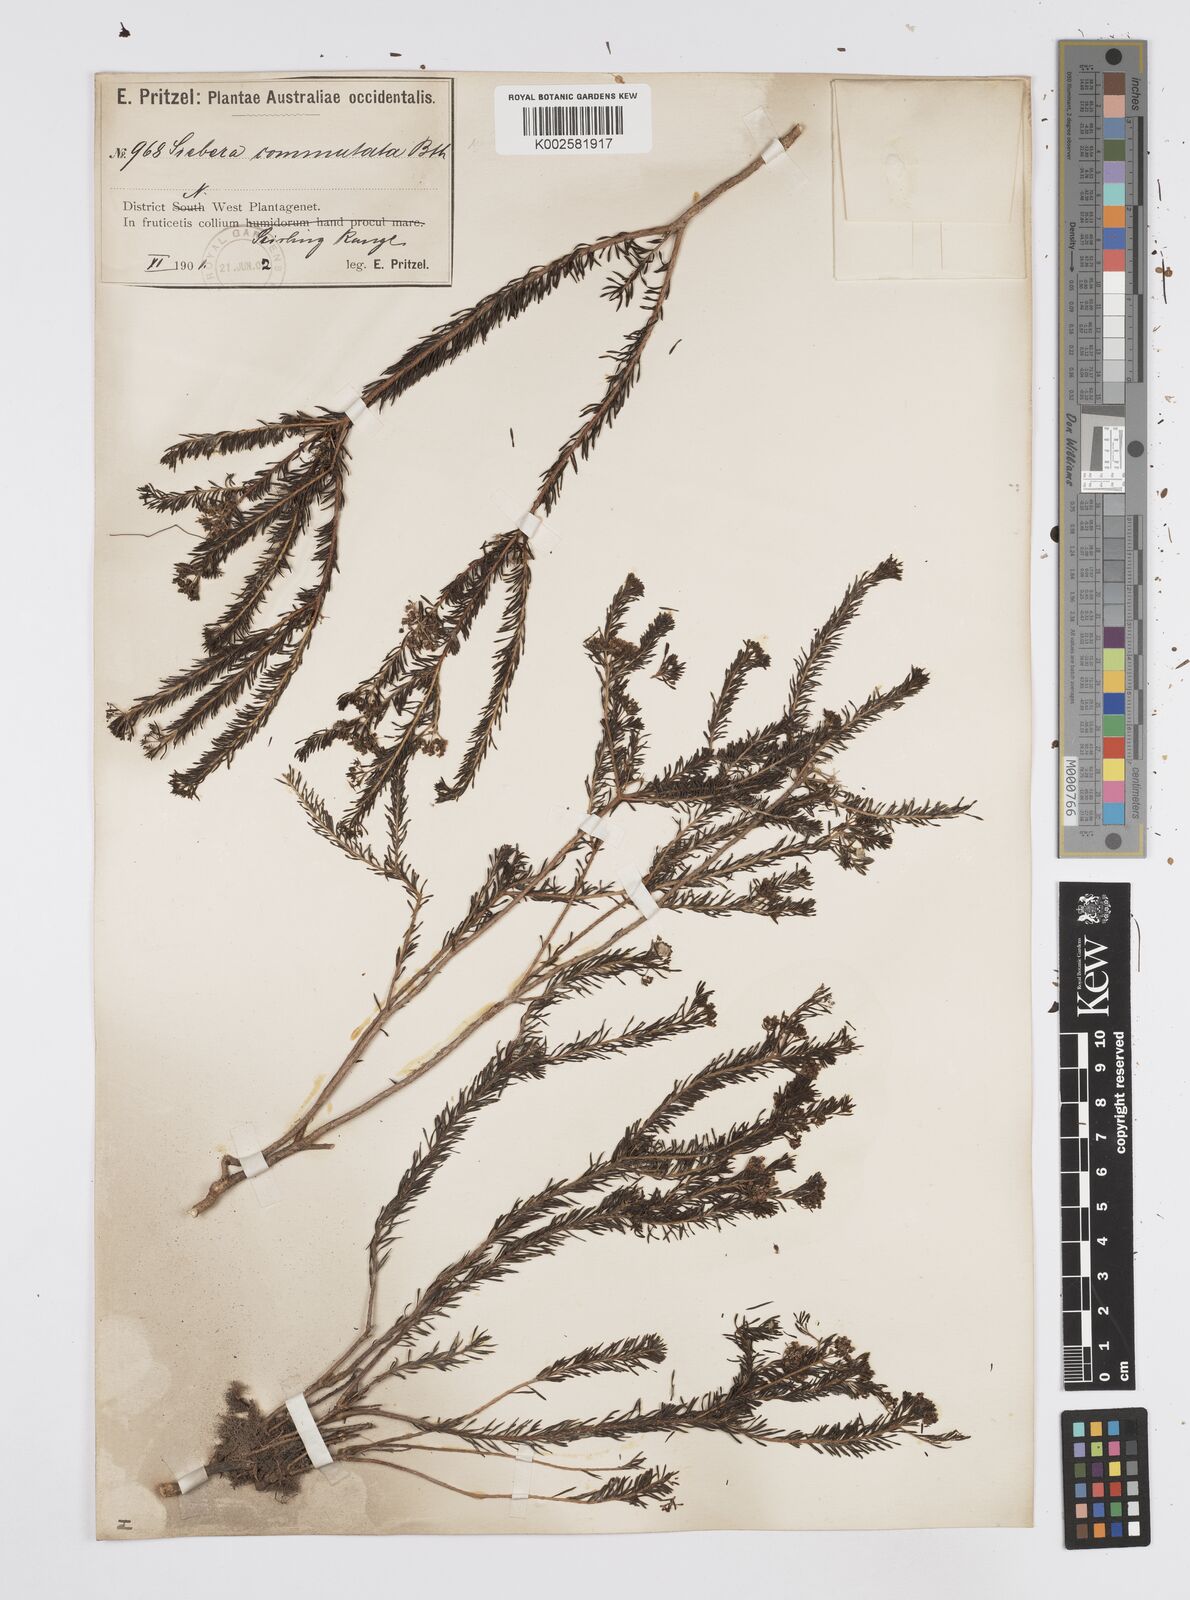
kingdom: Plantae
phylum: Tracheophyta
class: Magnoliopsida
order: Apiales
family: Apiaceae
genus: Platysace
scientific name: Platysace commutata
